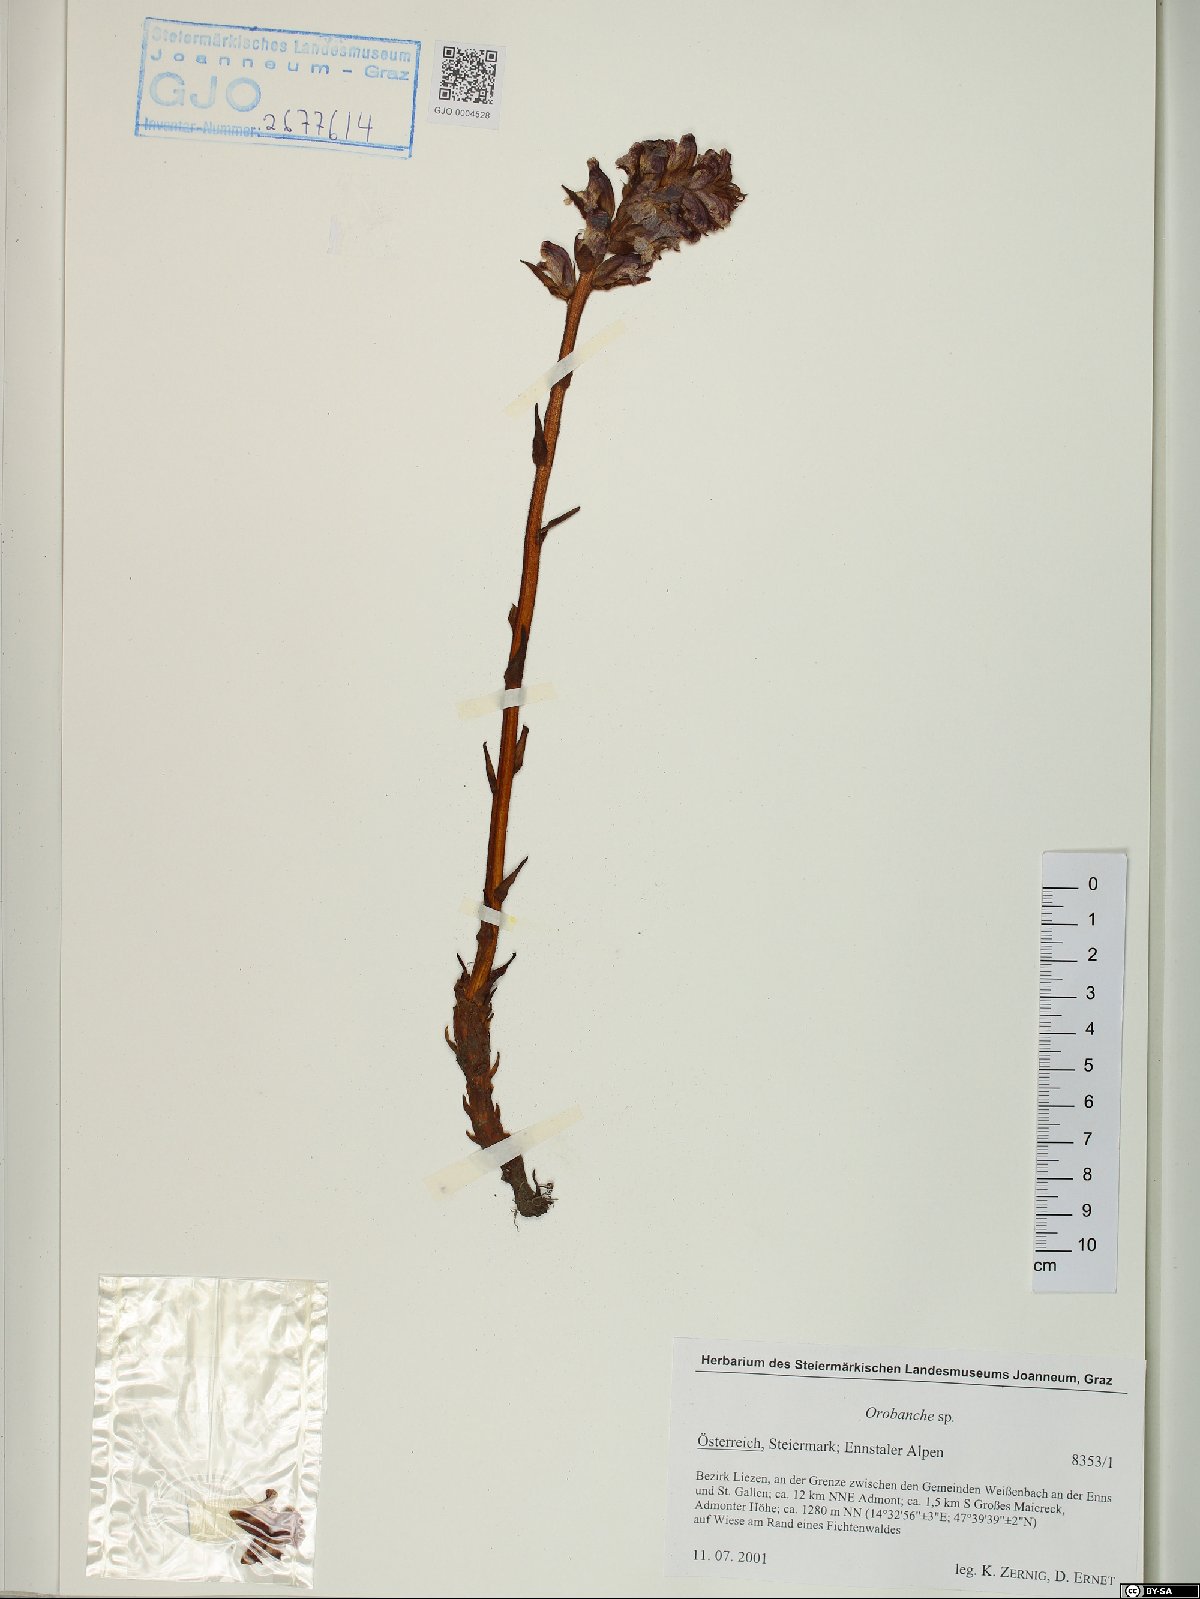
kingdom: Plantae
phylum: Tracheophyta
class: Magnoliopsida
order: Lamiales
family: Orobanchaceae
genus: Orobanche
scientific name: Orobanche
